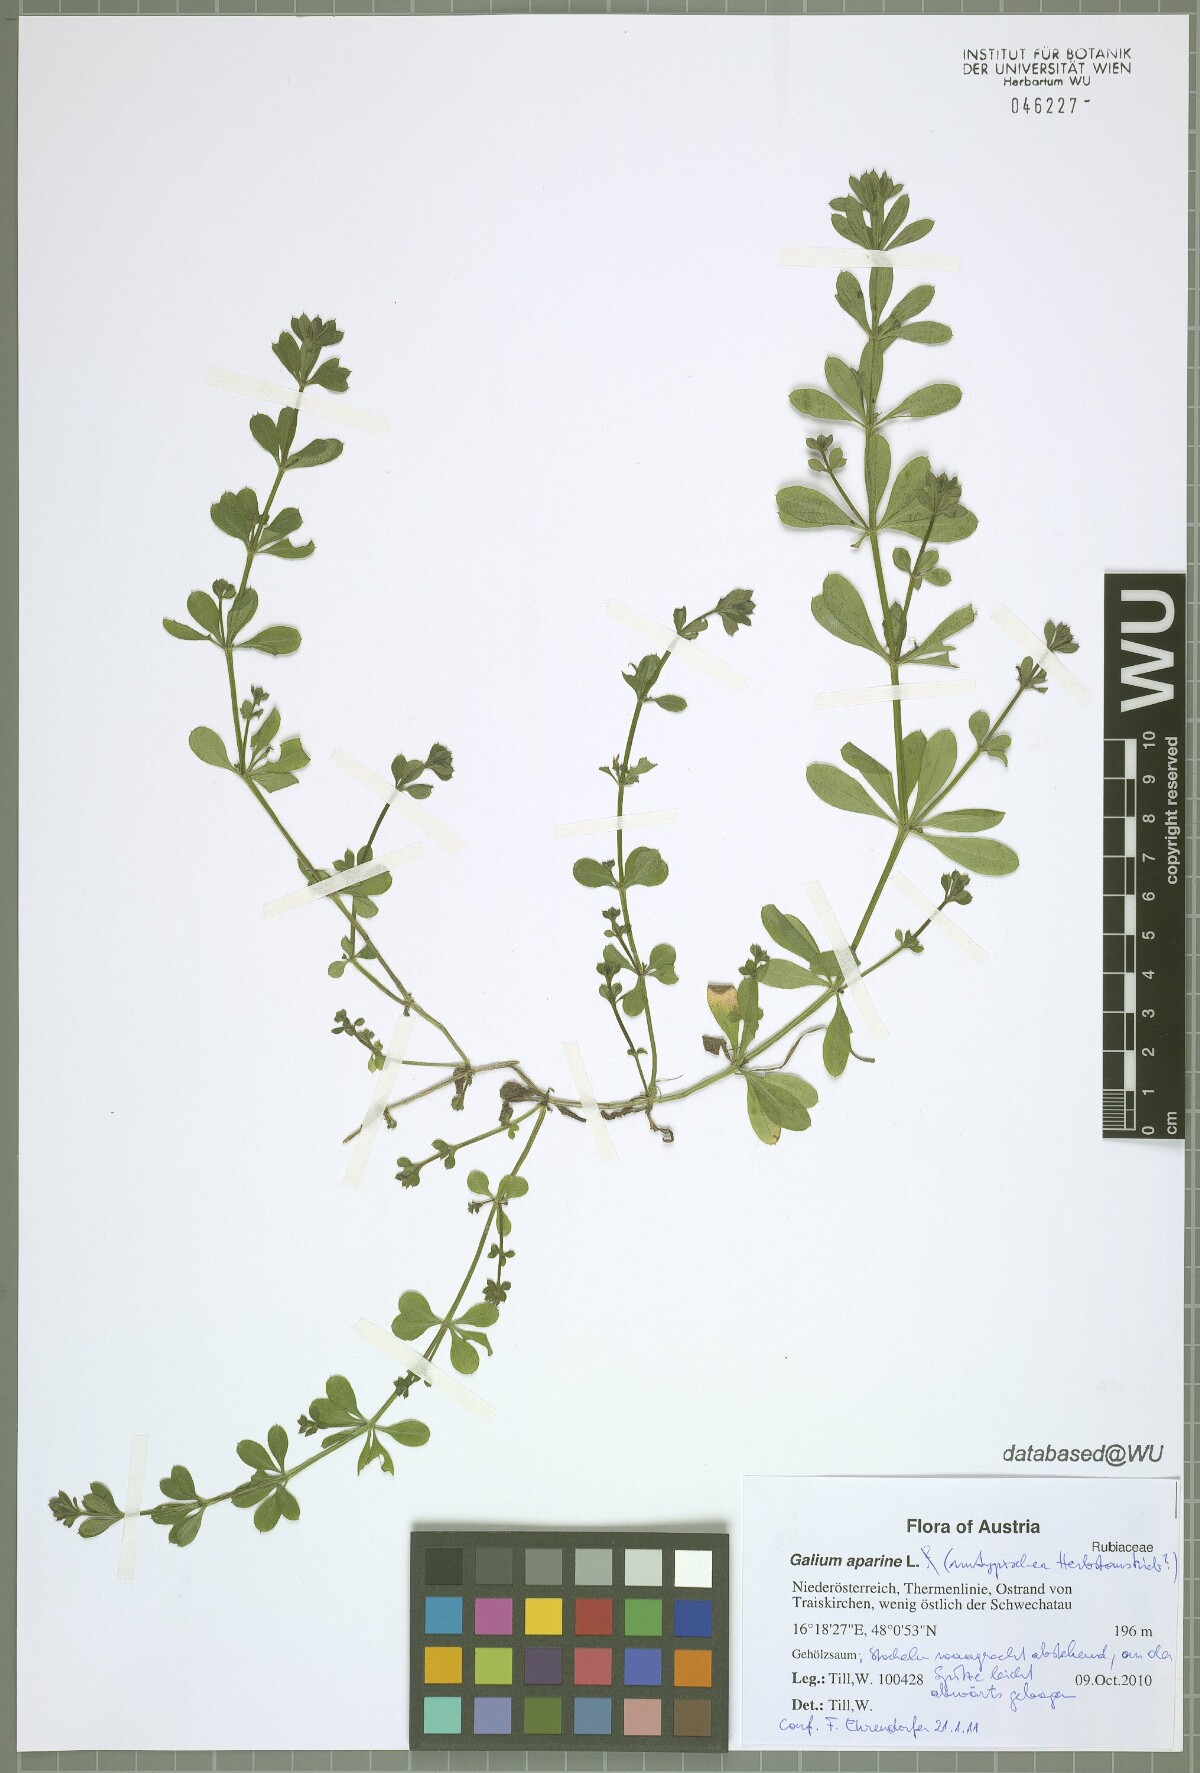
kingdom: Plantae
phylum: Tracheophyta
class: Magnoliopsida
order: Gentianales
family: Rubiaceae
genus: Galium
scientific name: Galium aparine
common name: Cleavers
